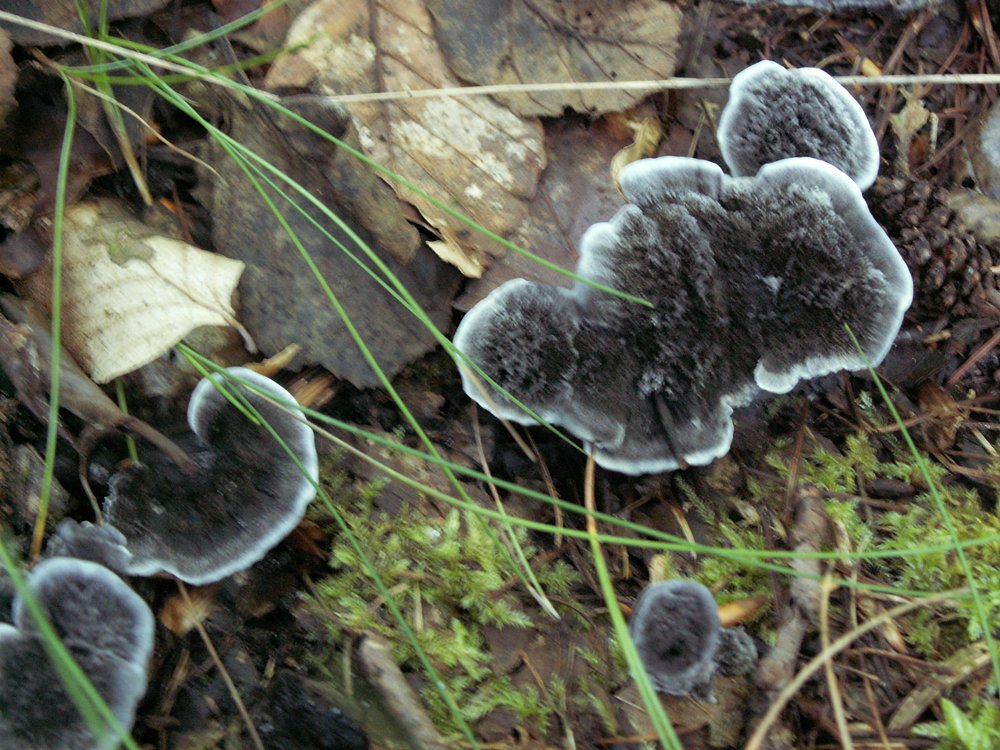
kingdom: Fungi
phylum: Basidiomycota
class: Agaricomycetes
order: Thelephorales
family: Thelephoraceae
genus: Phellodon
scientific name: Phellodon niger
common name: Black tooth
